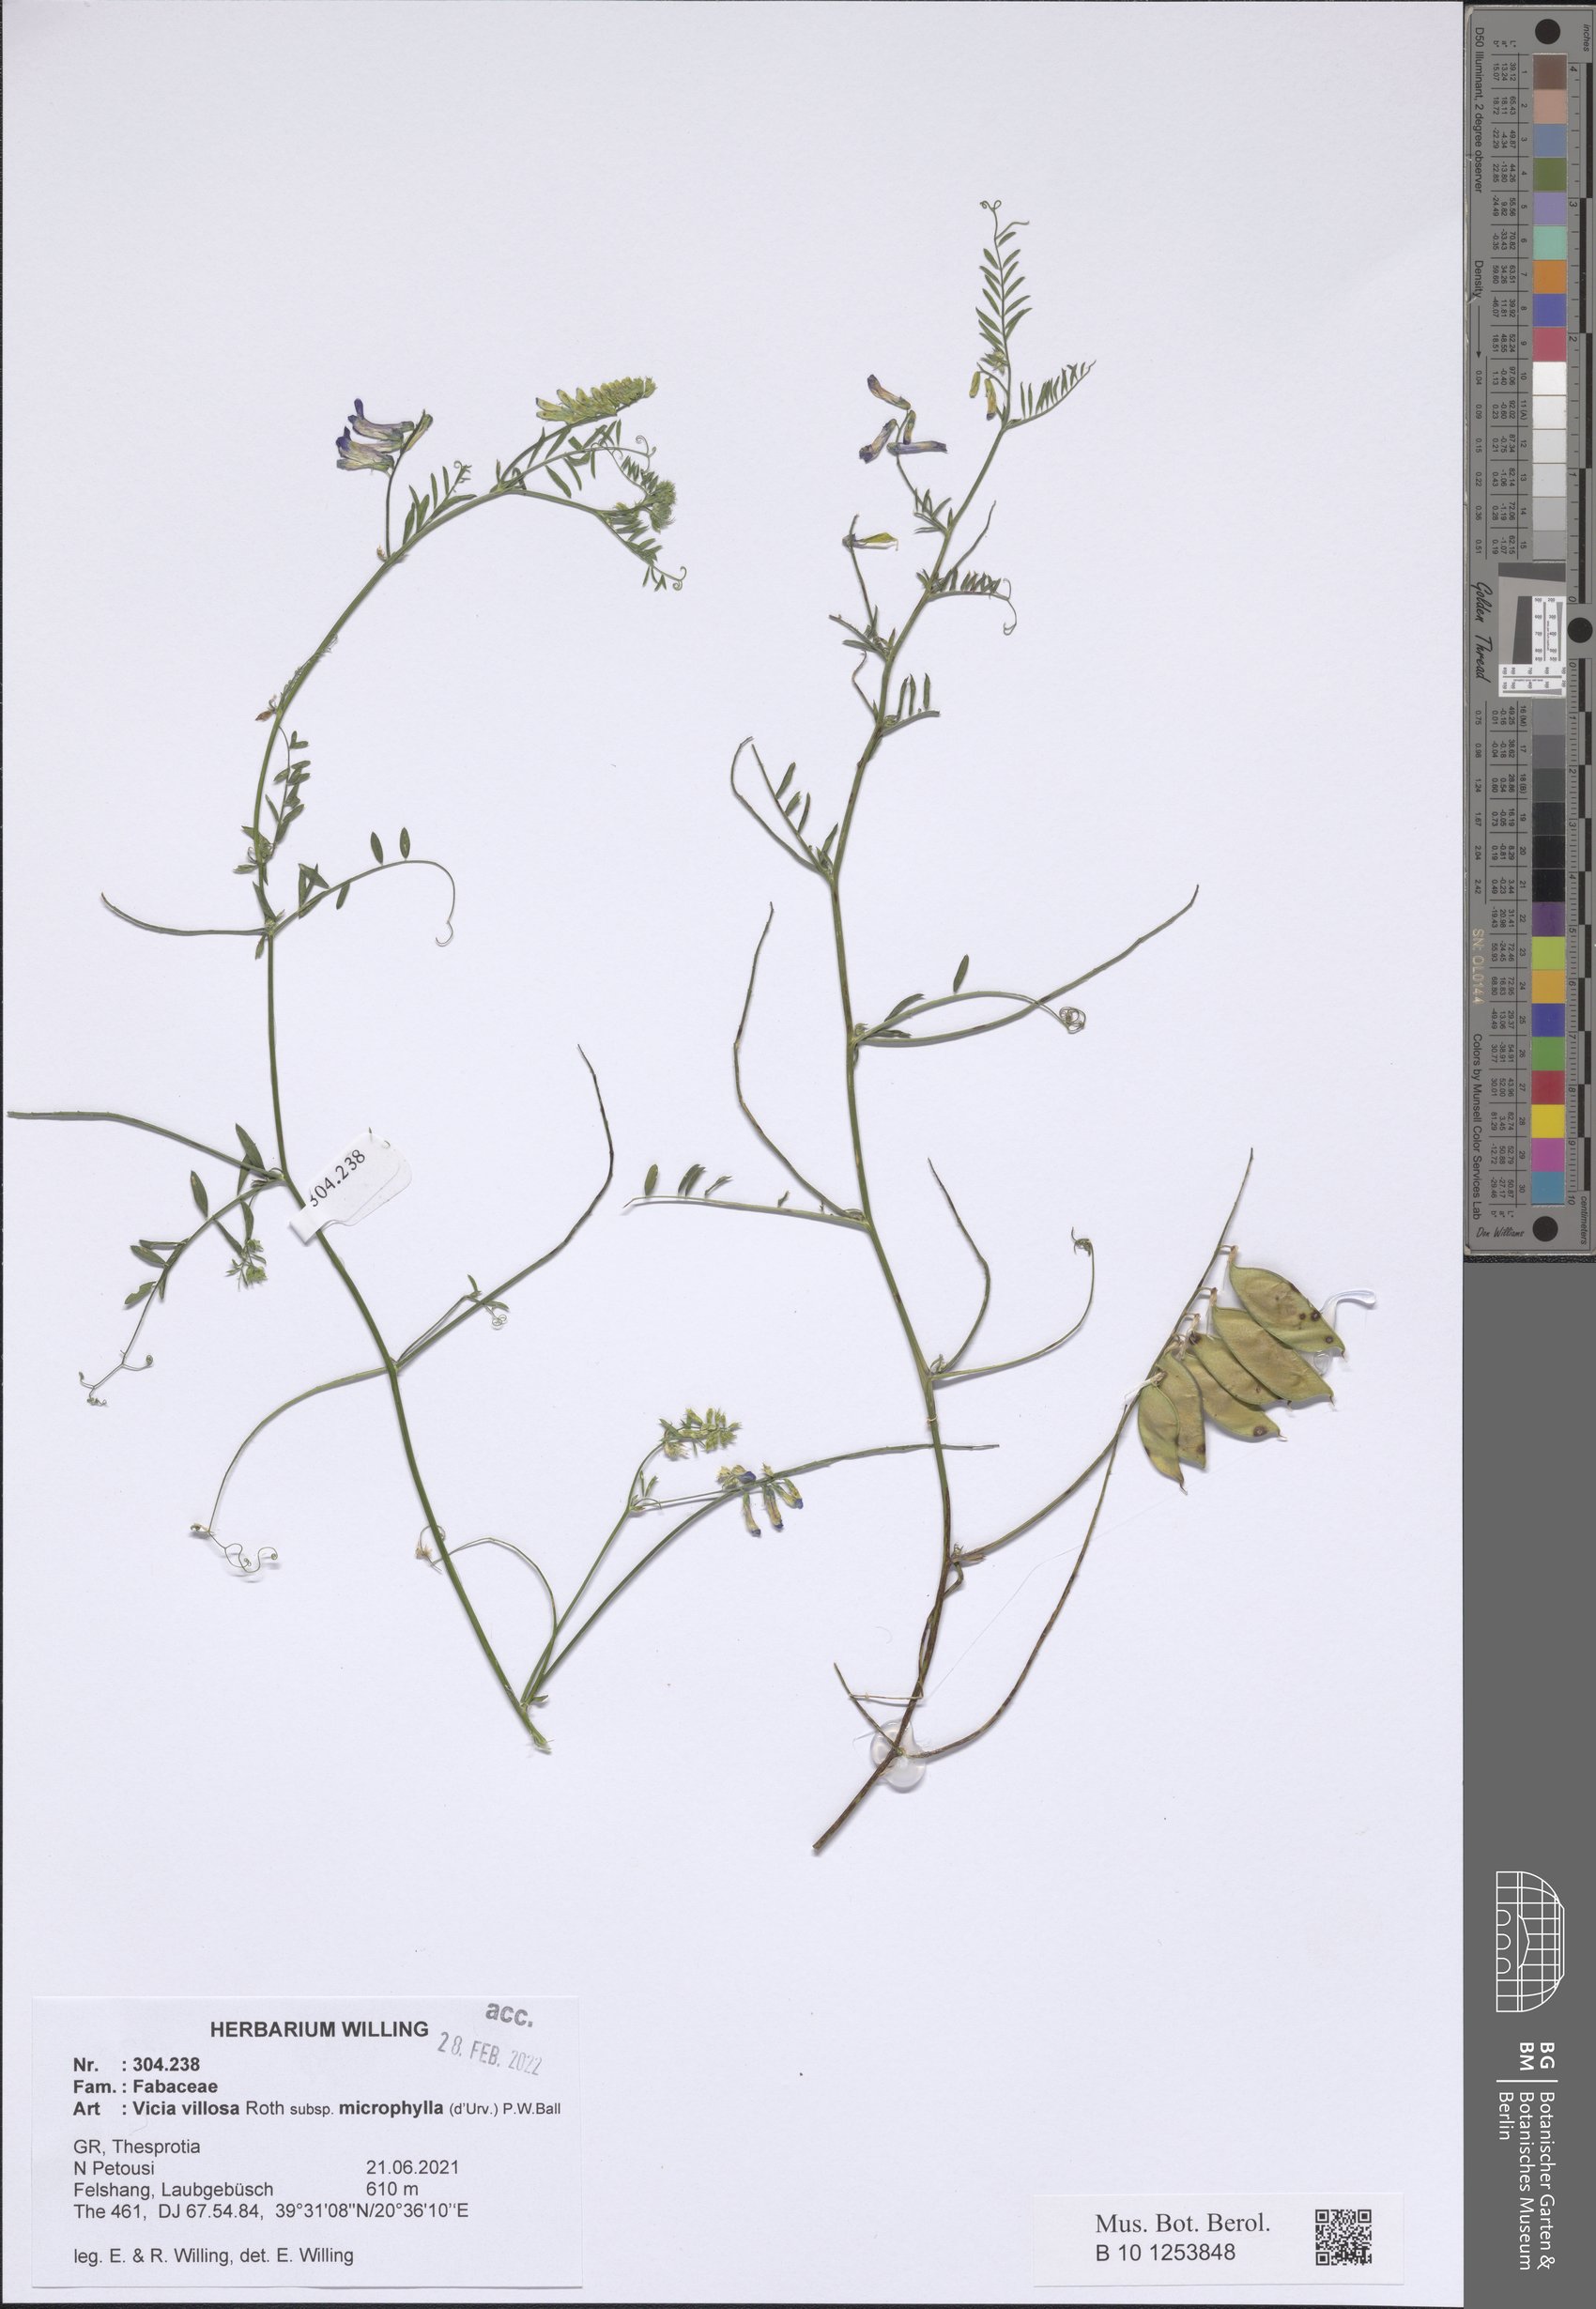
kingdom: Plantae
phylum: Tracheophyta
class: Magnoliopsida
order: Fabales
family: Fabaceae
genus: Vicia
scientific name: Vicia villosa
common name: Fodder vetch
